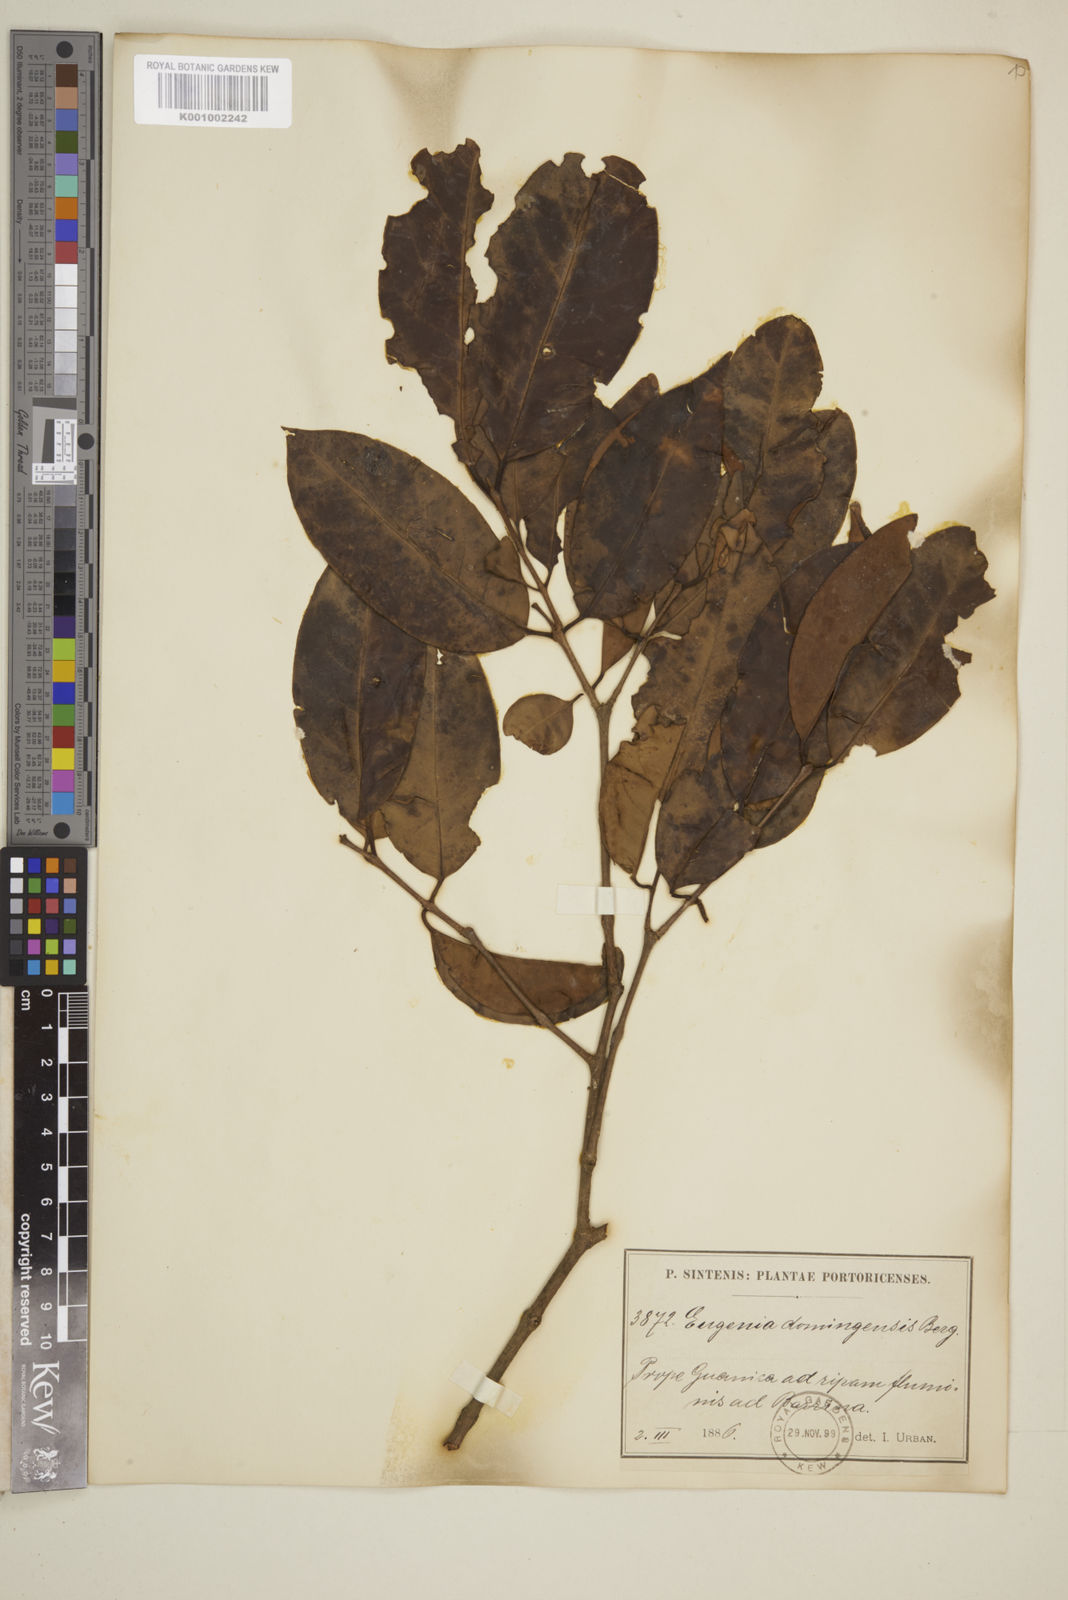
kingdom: Plantae
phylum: Tracheophyta
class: Magnoliopsida
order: Myrtales
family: Myrtaceae
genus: Eugenia
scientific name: Eugenia domingensis
